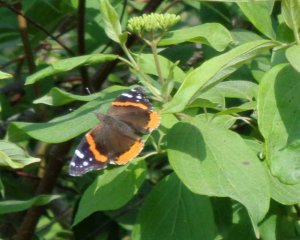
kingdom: Animalia
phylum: Arthropoda
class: Insecta
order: Lepidoptera
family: Nymphalidae
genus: Vanessa
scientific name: Vanessa atalanta
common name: Red Admiral
